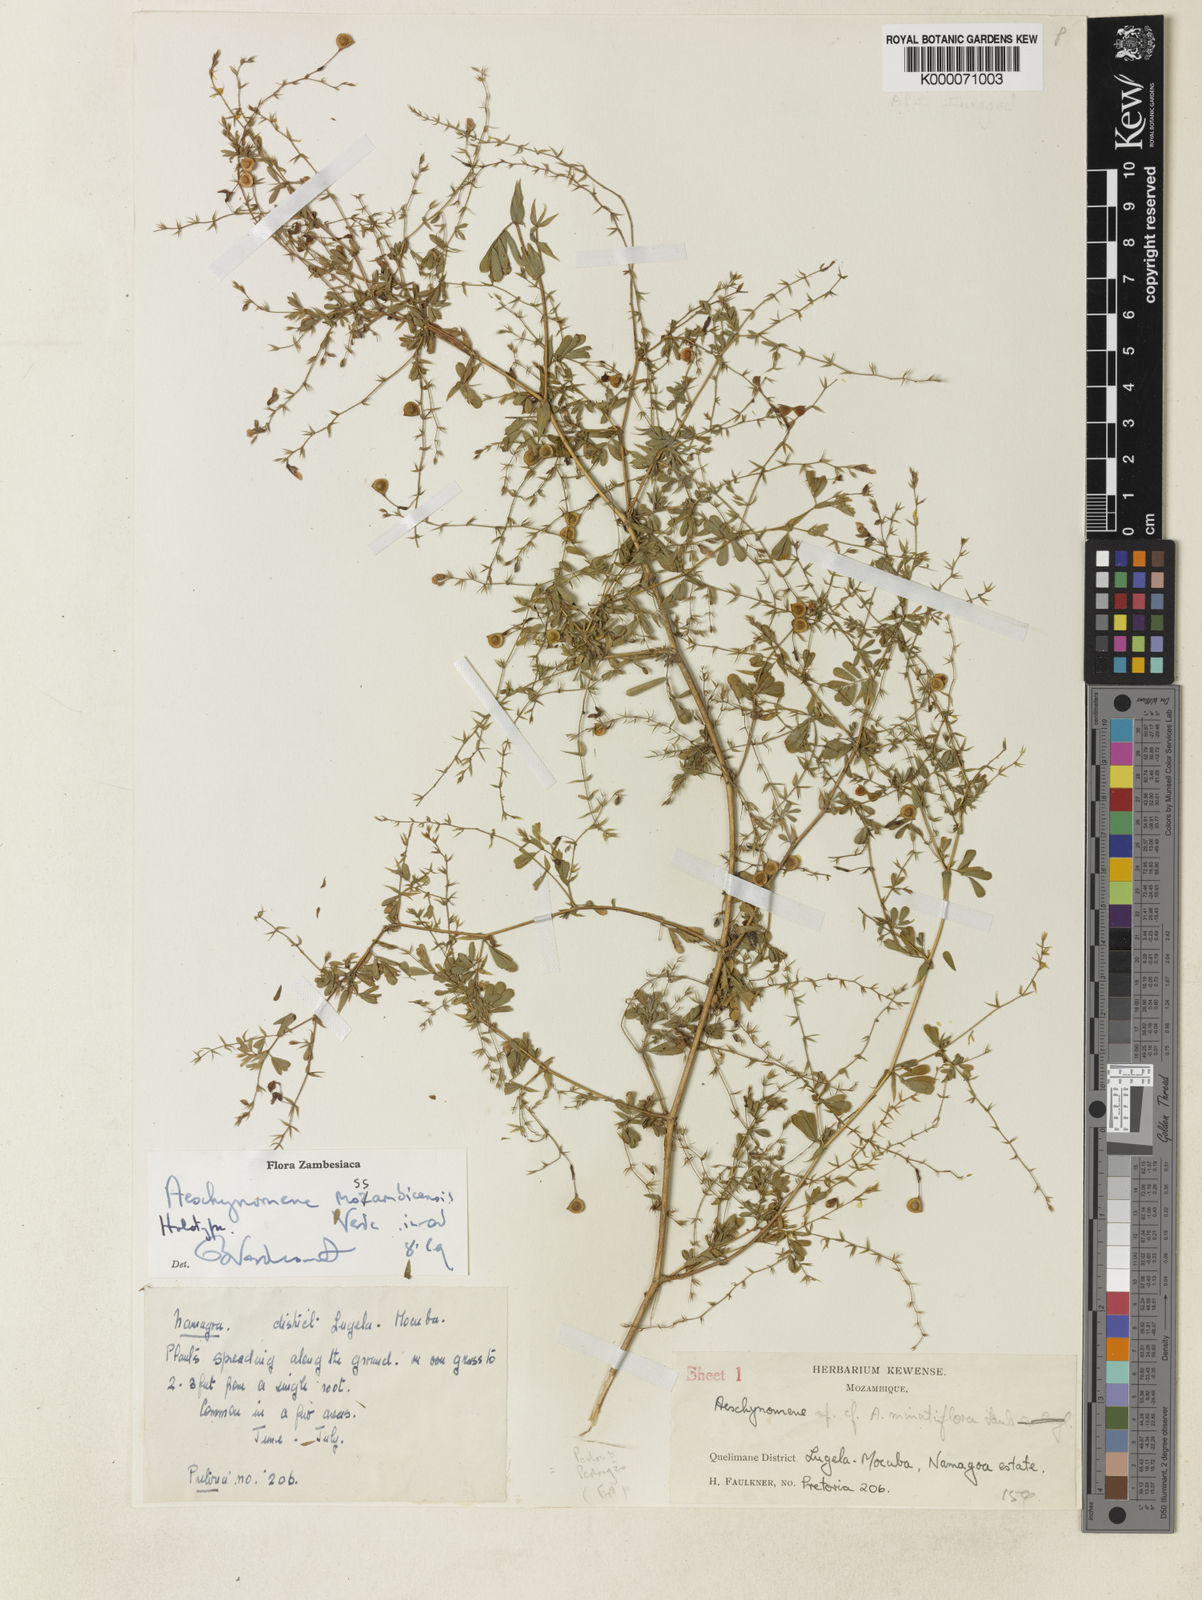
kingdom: Plantae
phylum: Tracheophyta
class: Magnoliopsida
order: Fabales
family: Fabaceae
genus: Aeschynomene
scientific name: Aeschynomene mossambicensis
